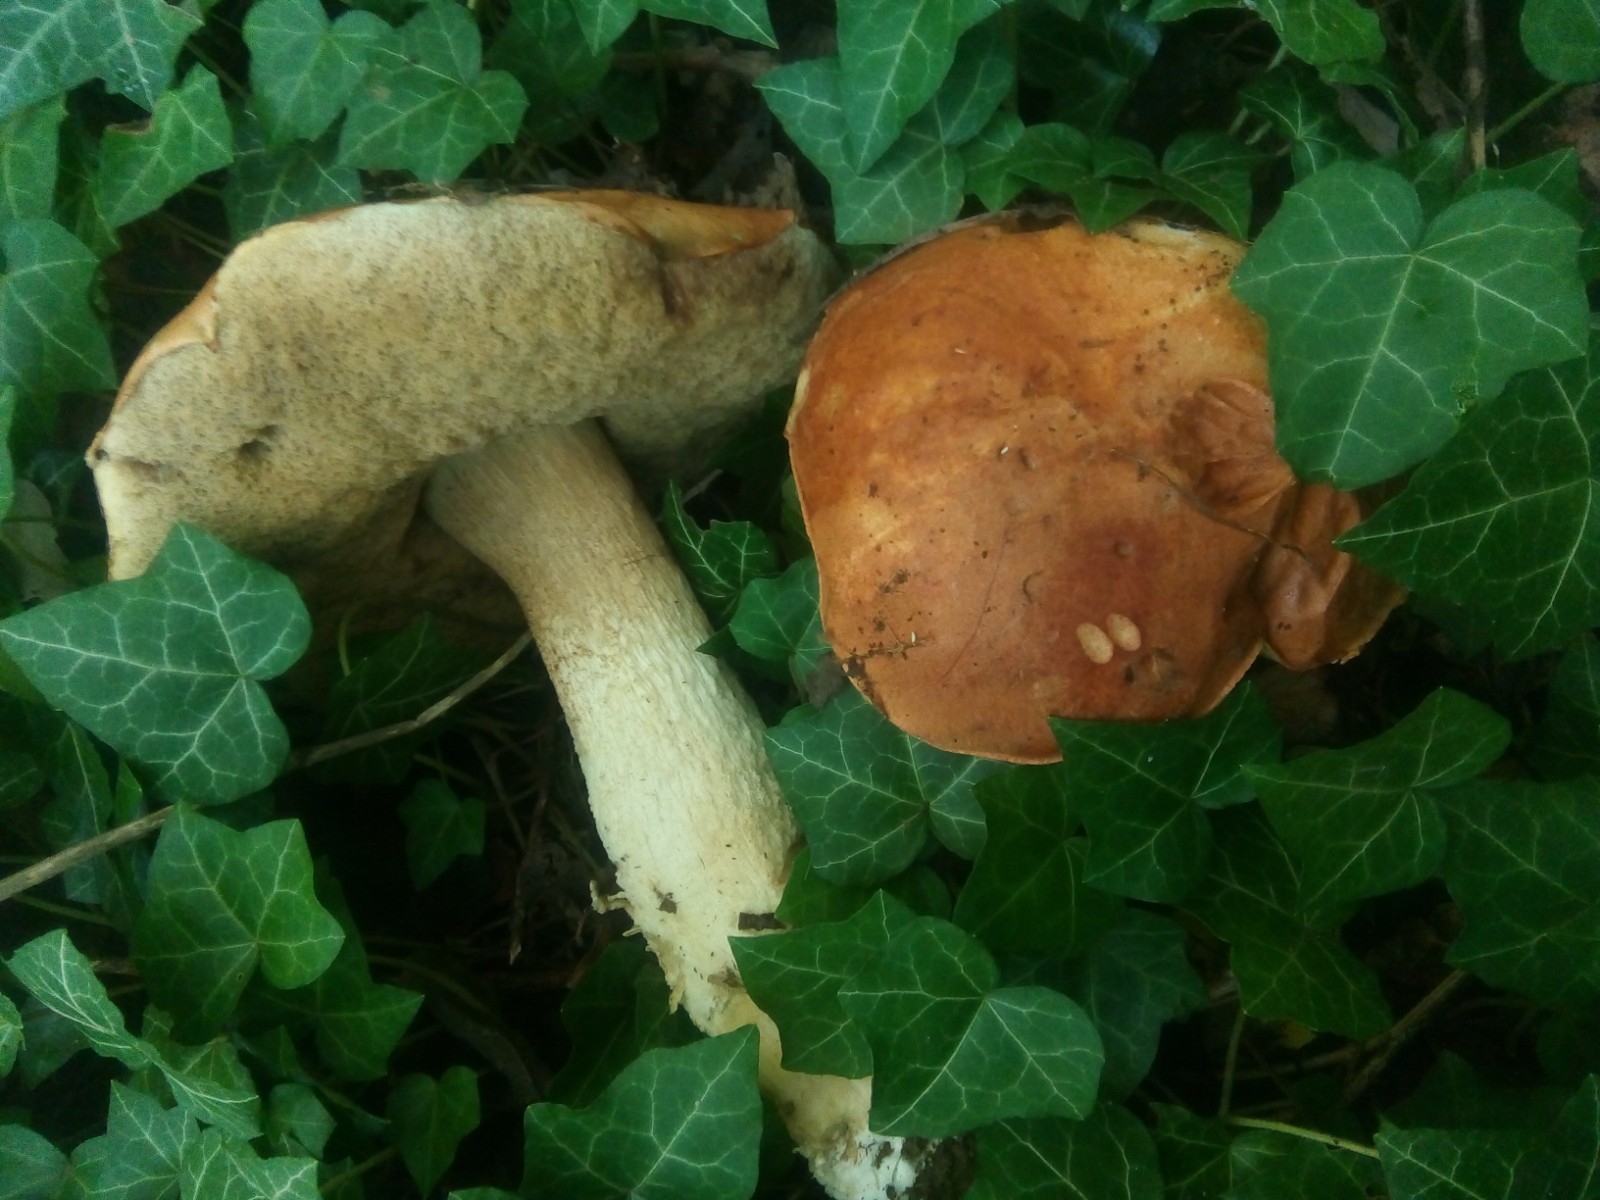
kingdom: Fungi
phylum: Basidiomycota
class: Agaricomycetes
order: Boletales
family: Boletaceae
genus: Leccinum
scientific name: Leccinum albostipitatum
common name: aspe-skælrørhat
